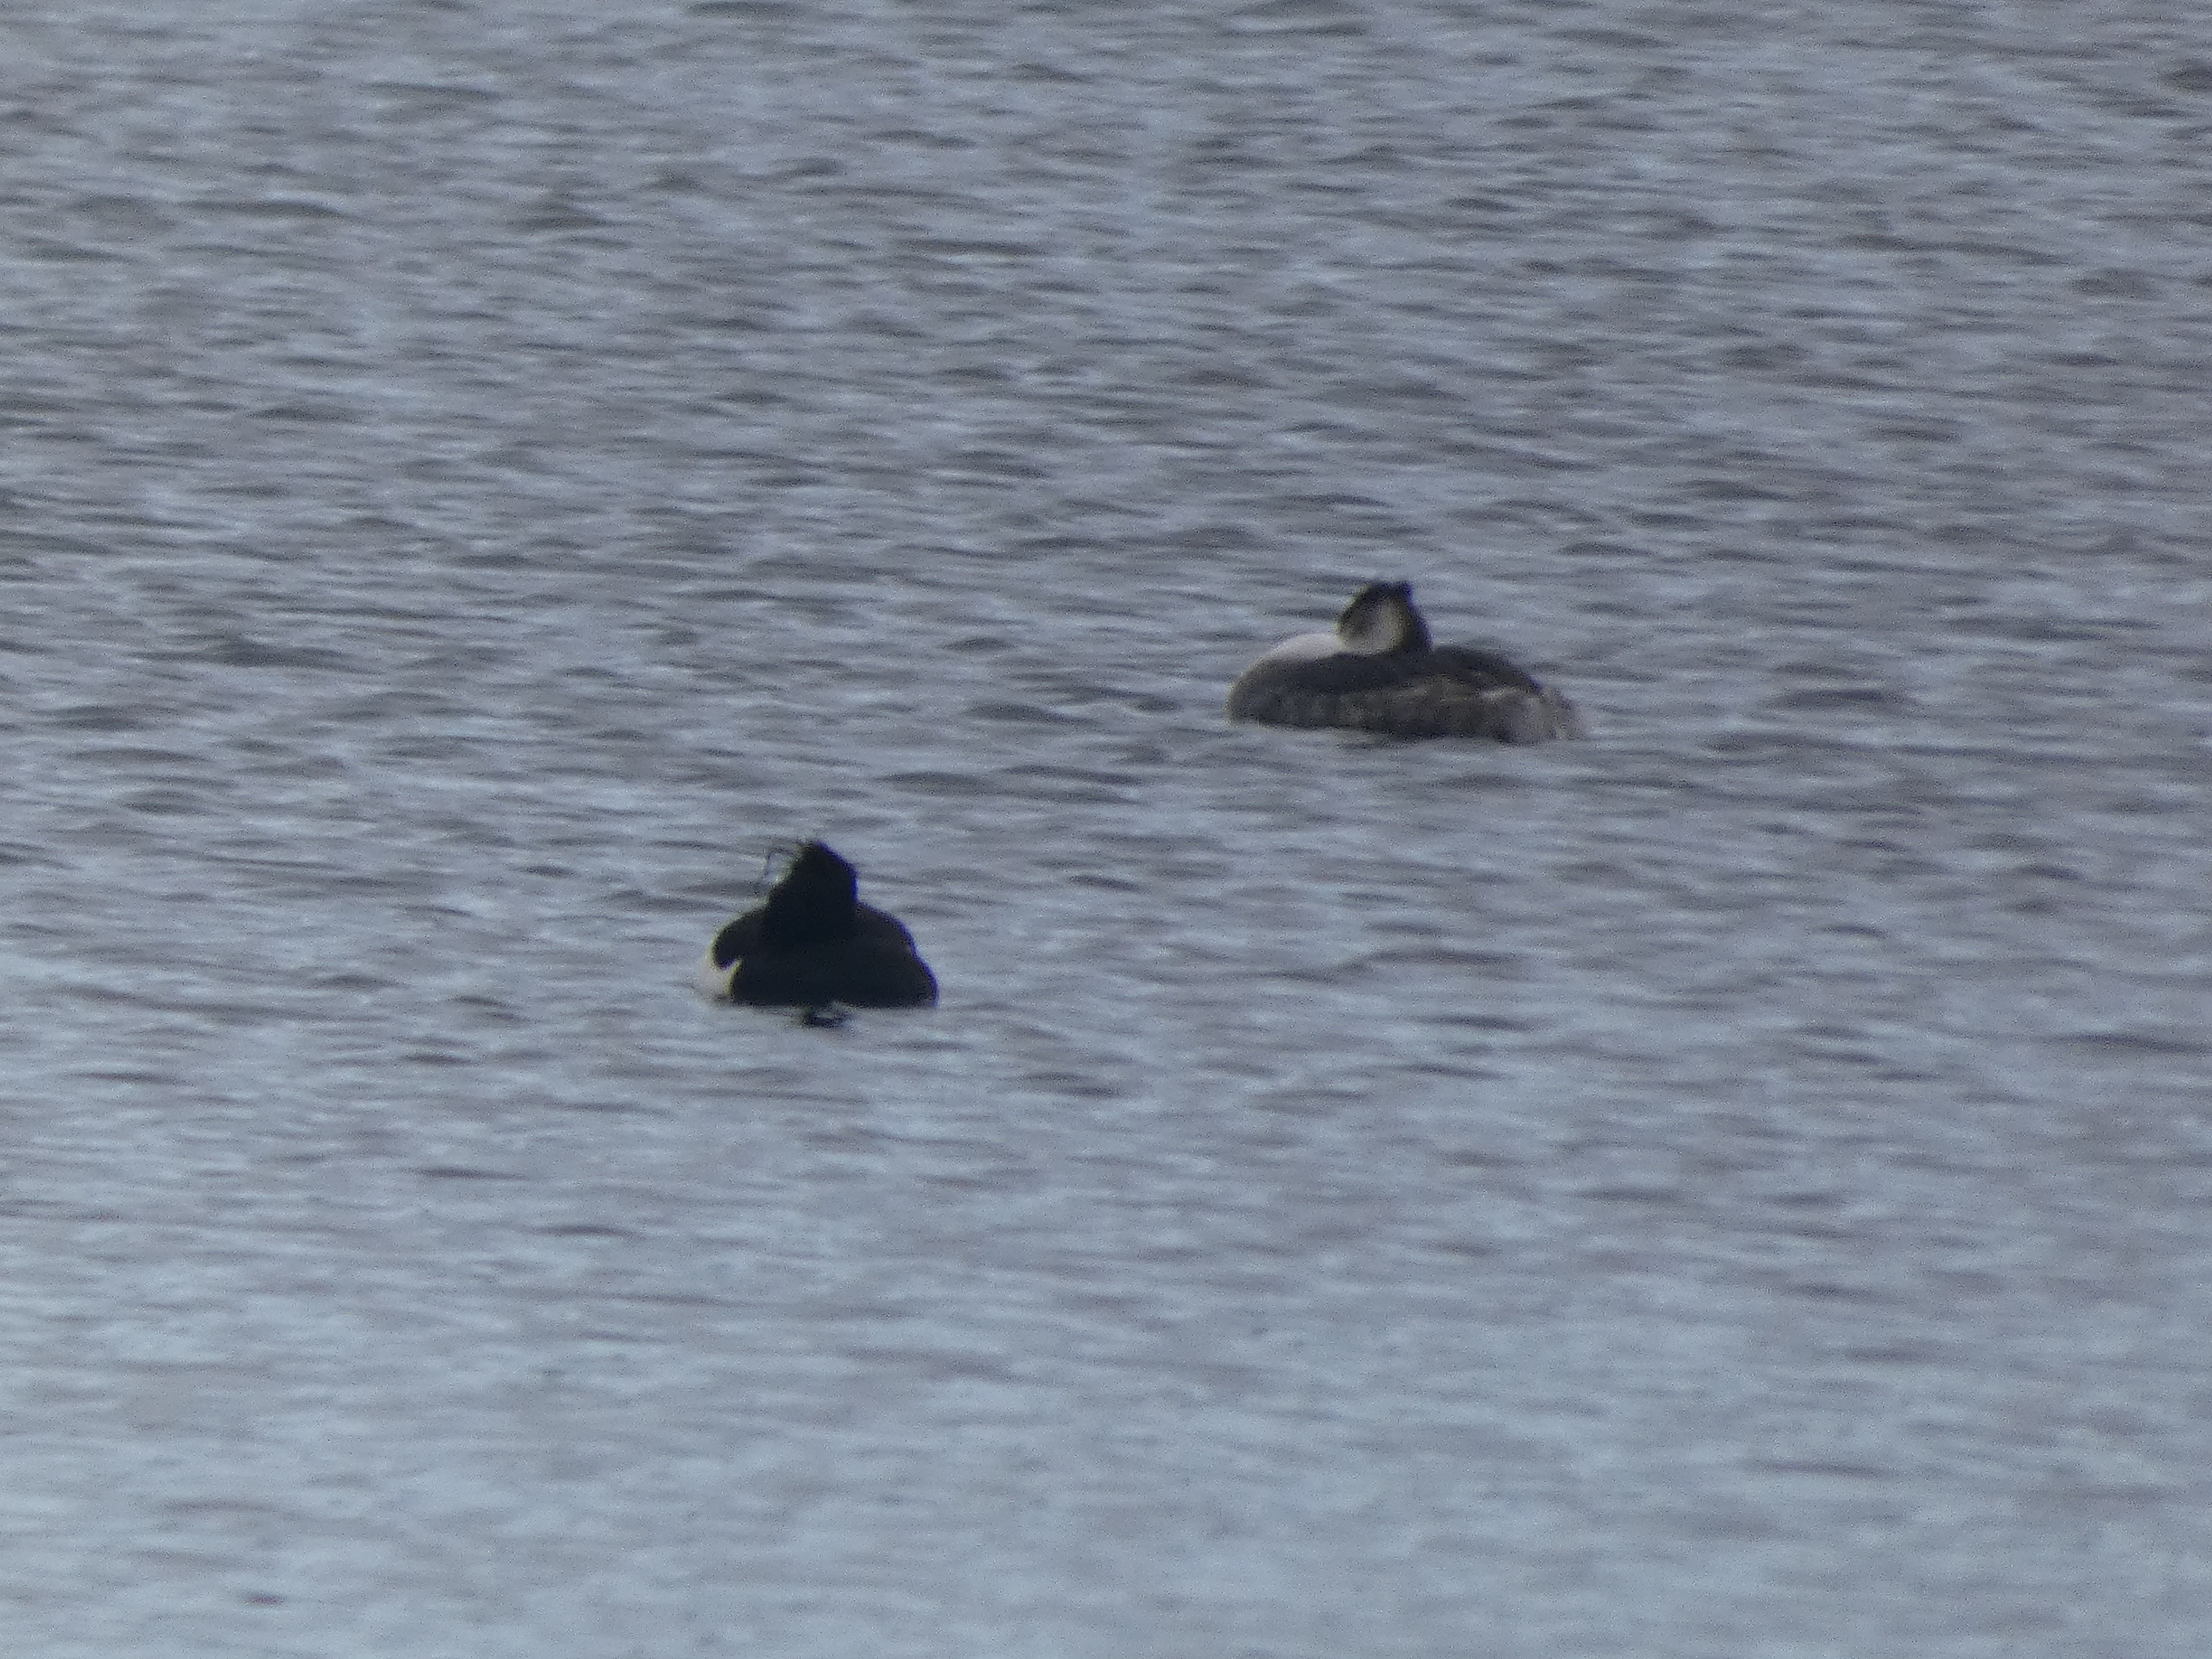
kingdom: Animalia
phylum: Chordata
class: Aves
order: Podicipediformes
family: Podicipedidae
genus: Podiceps
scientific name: Podiceps cristatus
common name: Toppet lappedykker
